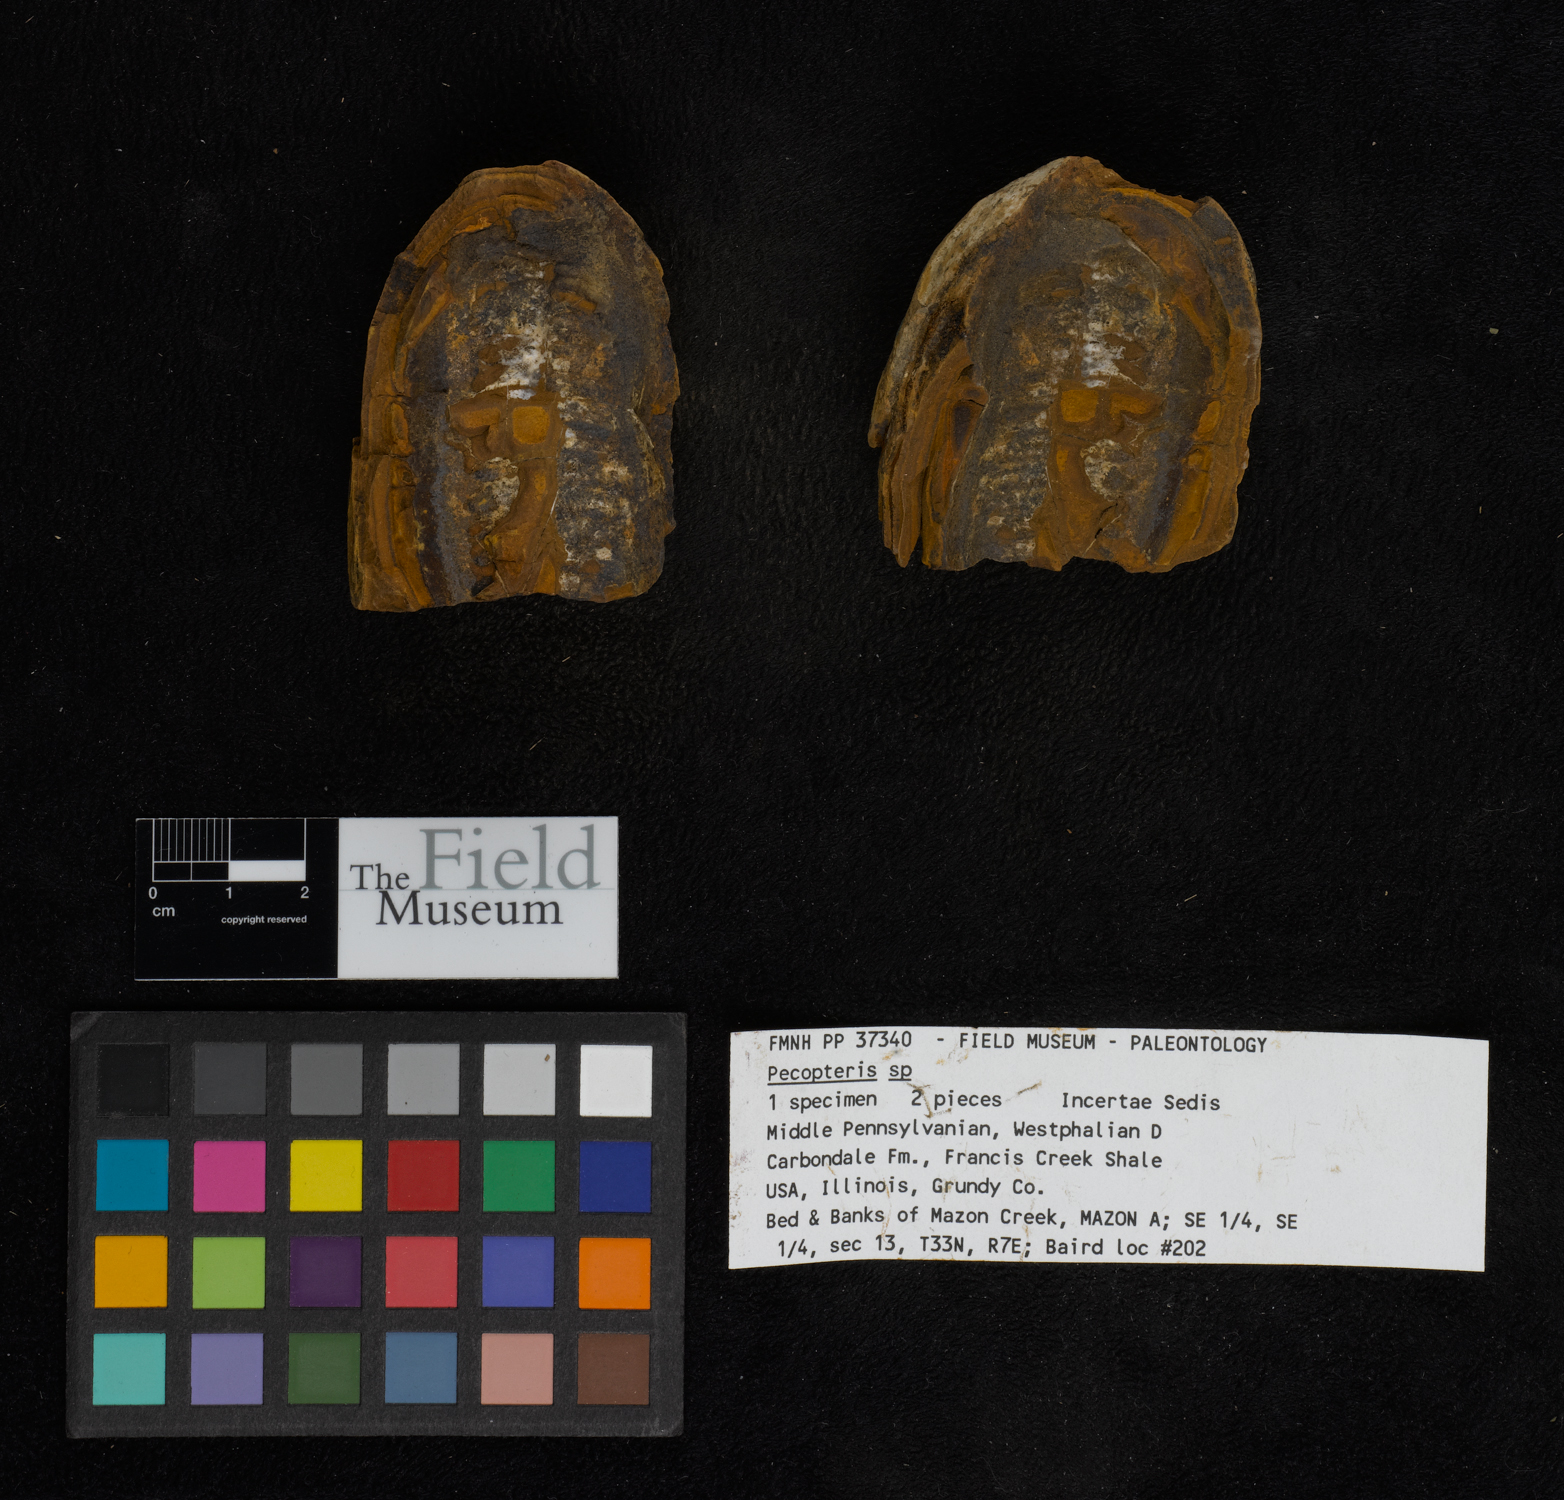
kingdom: Plantae
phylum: Tracheophyta
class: Polypodiopsida
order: Marattiales
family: Asterothecaceae
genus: Pecopteris
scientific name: Pecopteris
